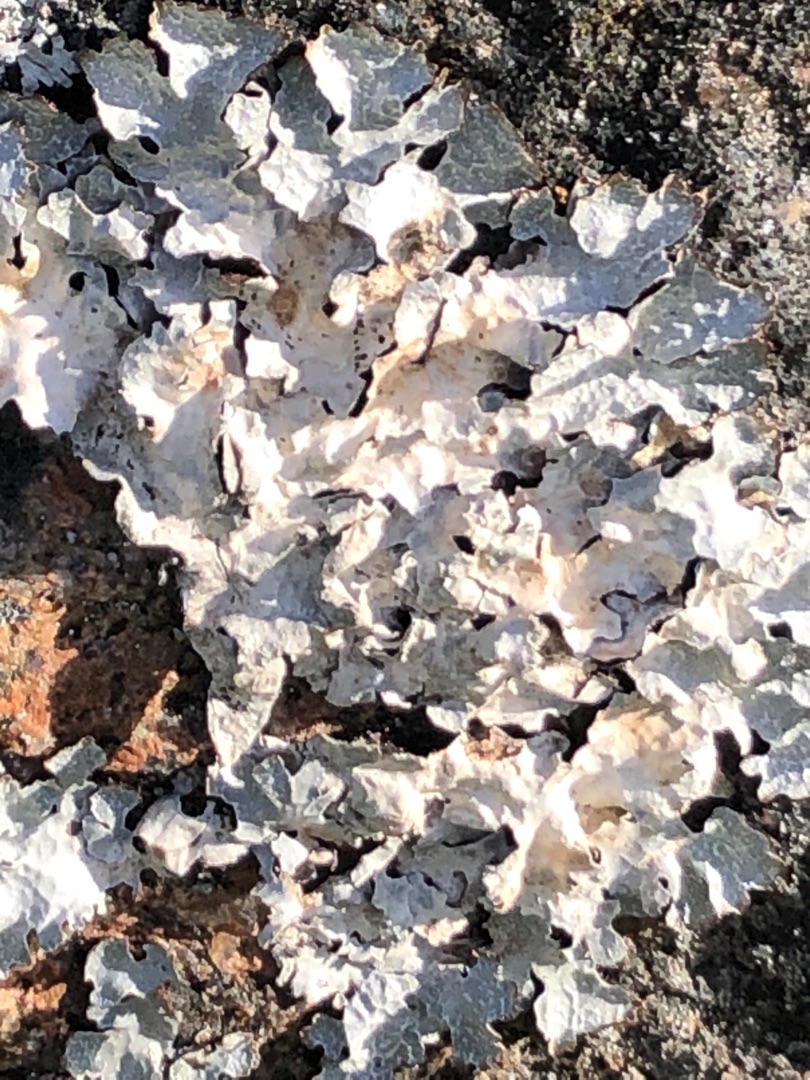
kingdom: Fungi
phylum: Ascomycota
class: Lecanoromycetes
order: Lecanorales
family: Parmeliaceae
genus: Parmelia
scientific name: Parmelia sulcata
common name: Rynket skållav
